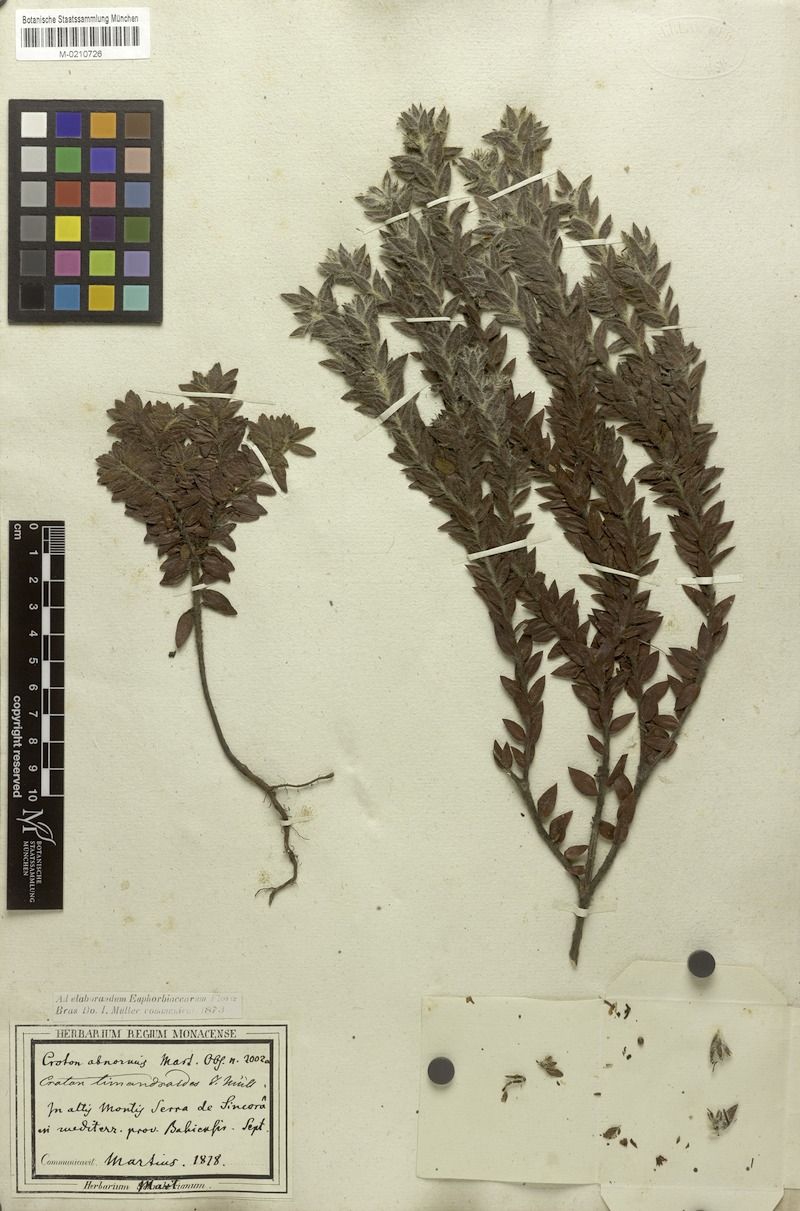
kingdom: Plantae
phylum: Tracheophyta
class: Magnoliopsida
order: Malpighiales
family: Euphorbiaceae
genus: Croton
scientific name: Croton timandroides
